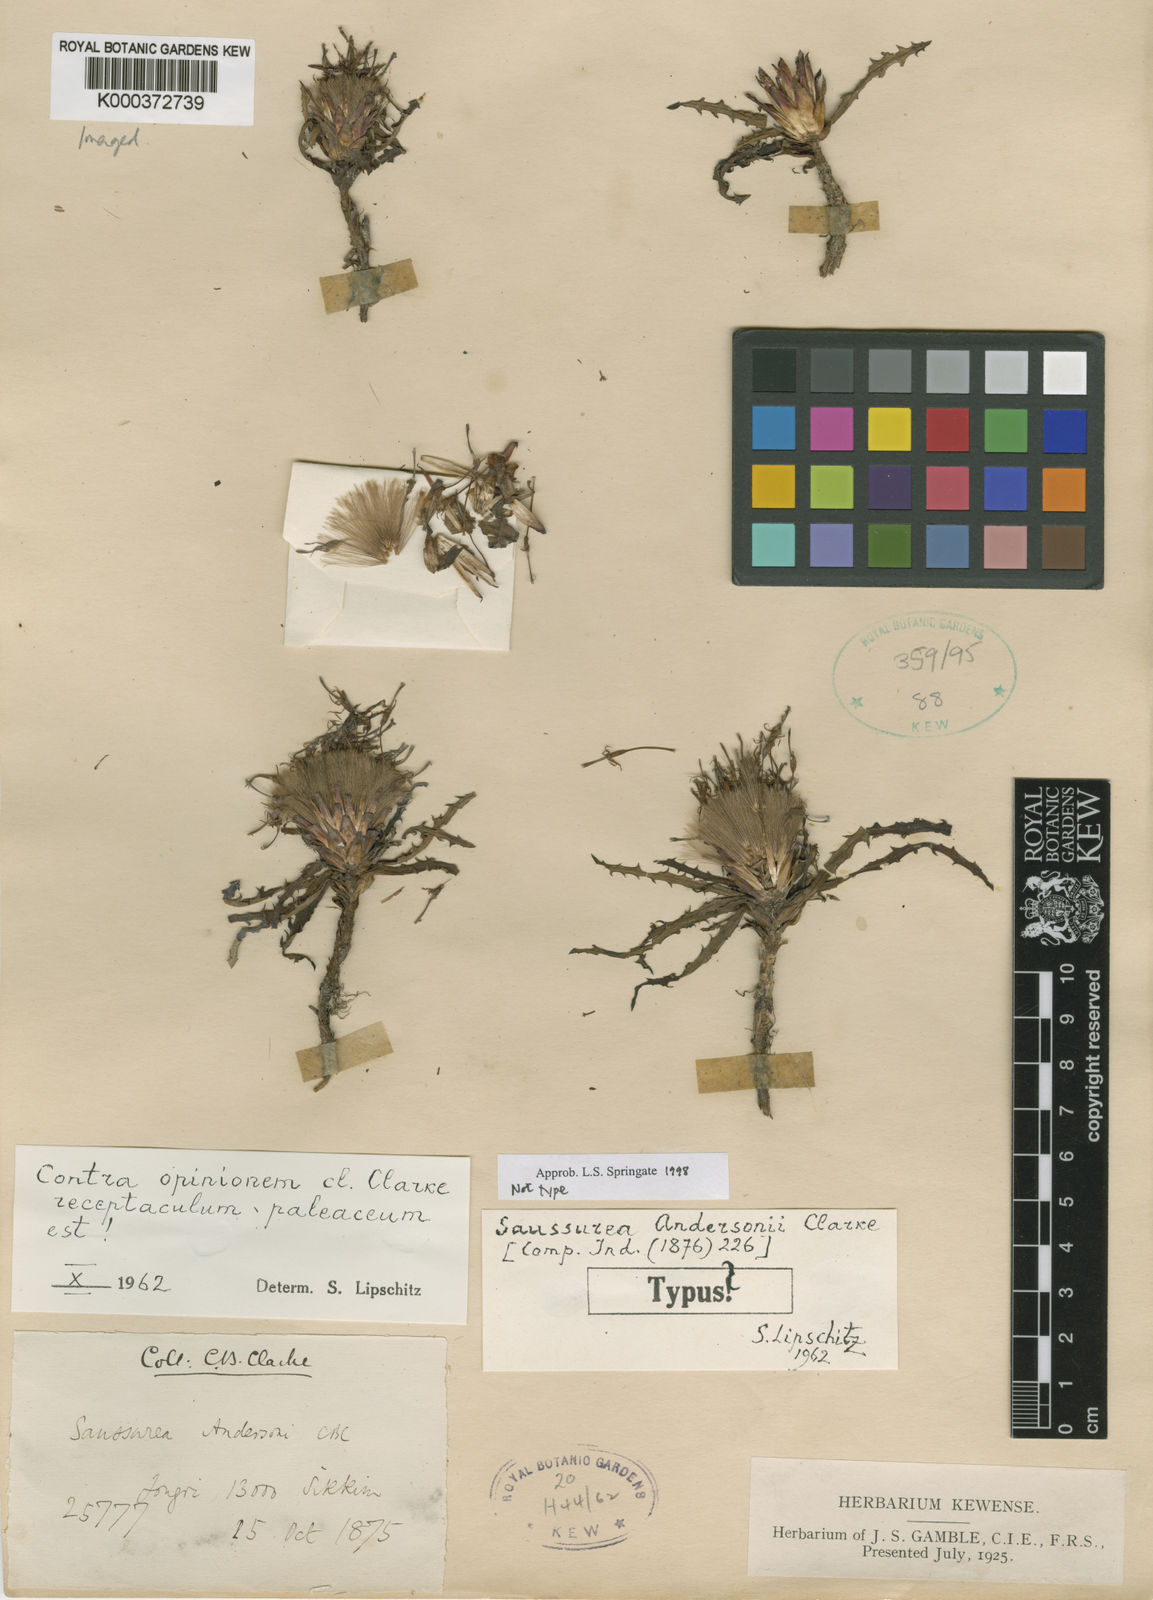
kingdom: Plantae
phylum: Tracheophyta
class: Magnoliopsida
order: Asterales
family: Asteraceae
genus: Saussurea
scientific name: Saussurea andersonii
